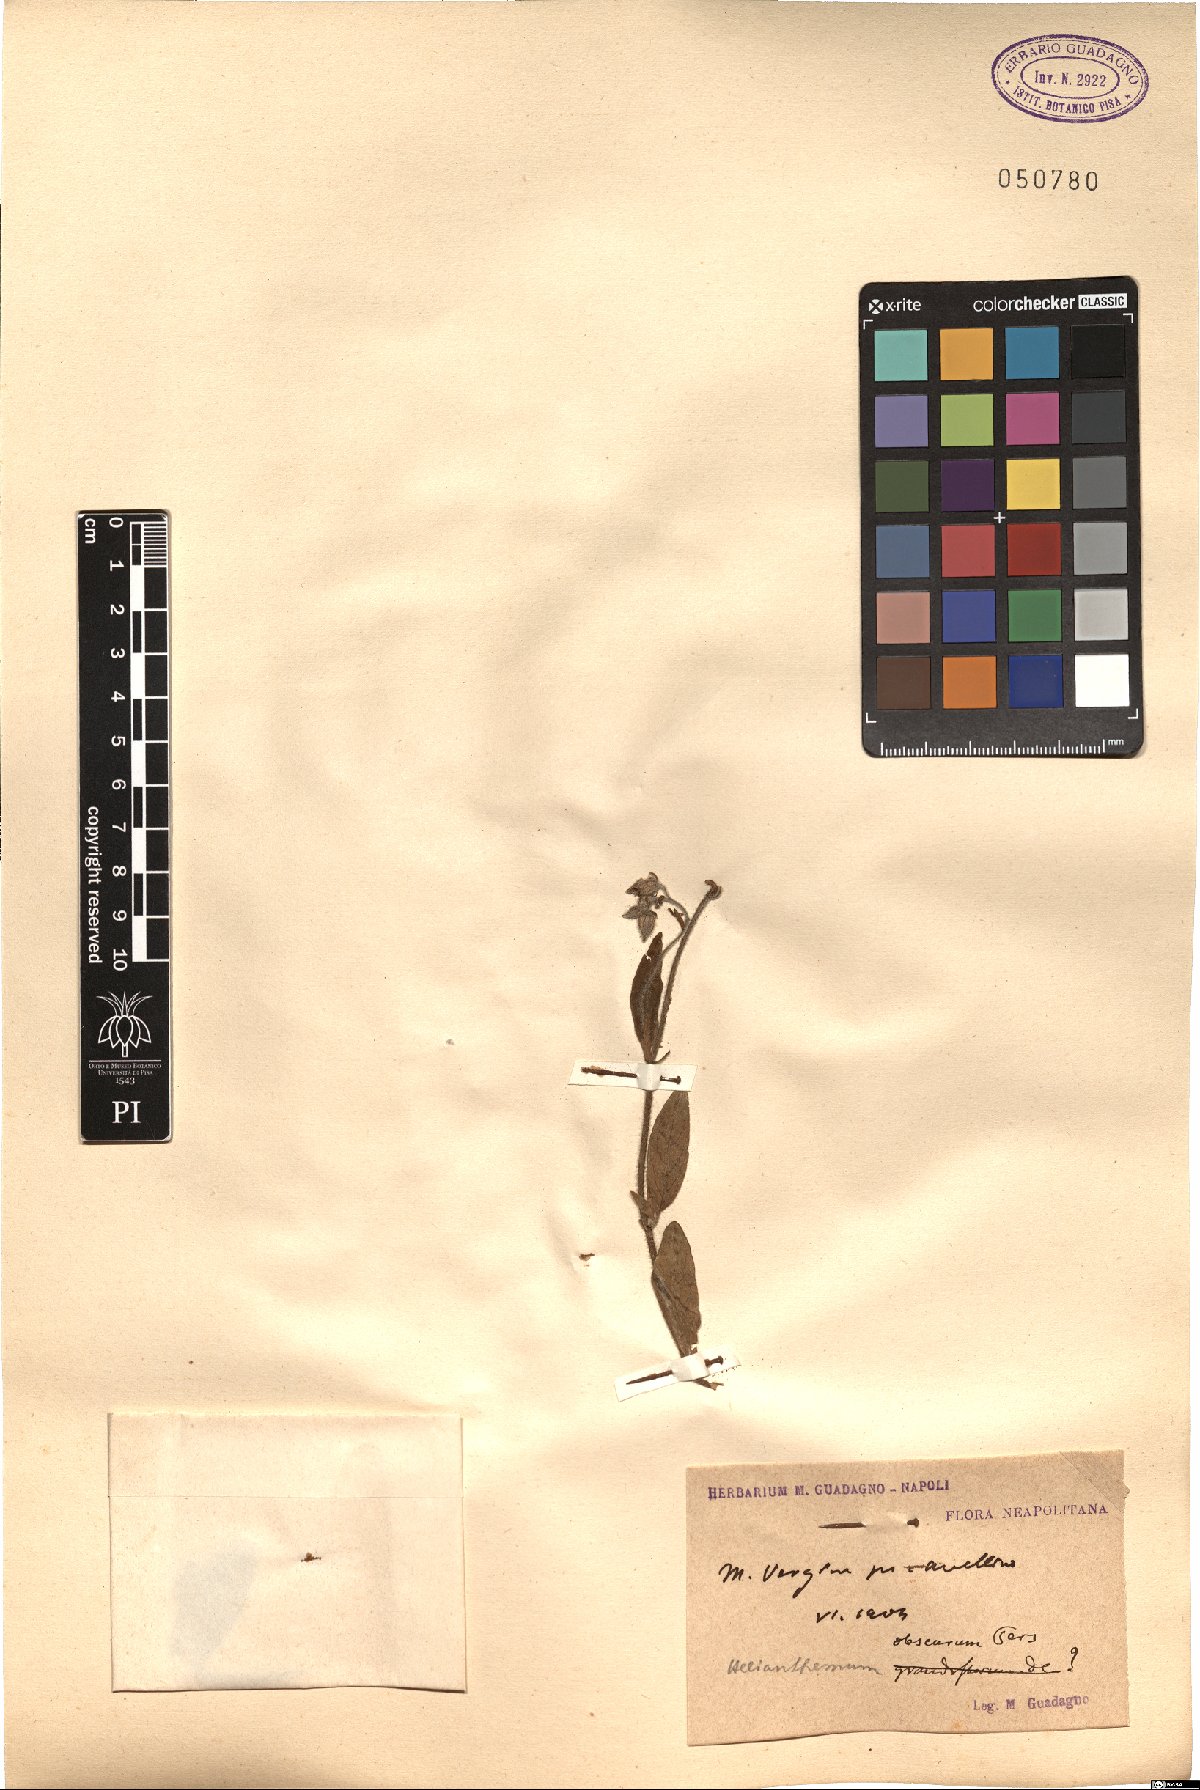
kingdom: Plantae
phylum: Tracheophyta
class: Magnoliopsida
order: Malvales
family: Cistaceae
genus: Helianthemum
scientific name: Helianthemum nummularium
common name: Common rock-rose
